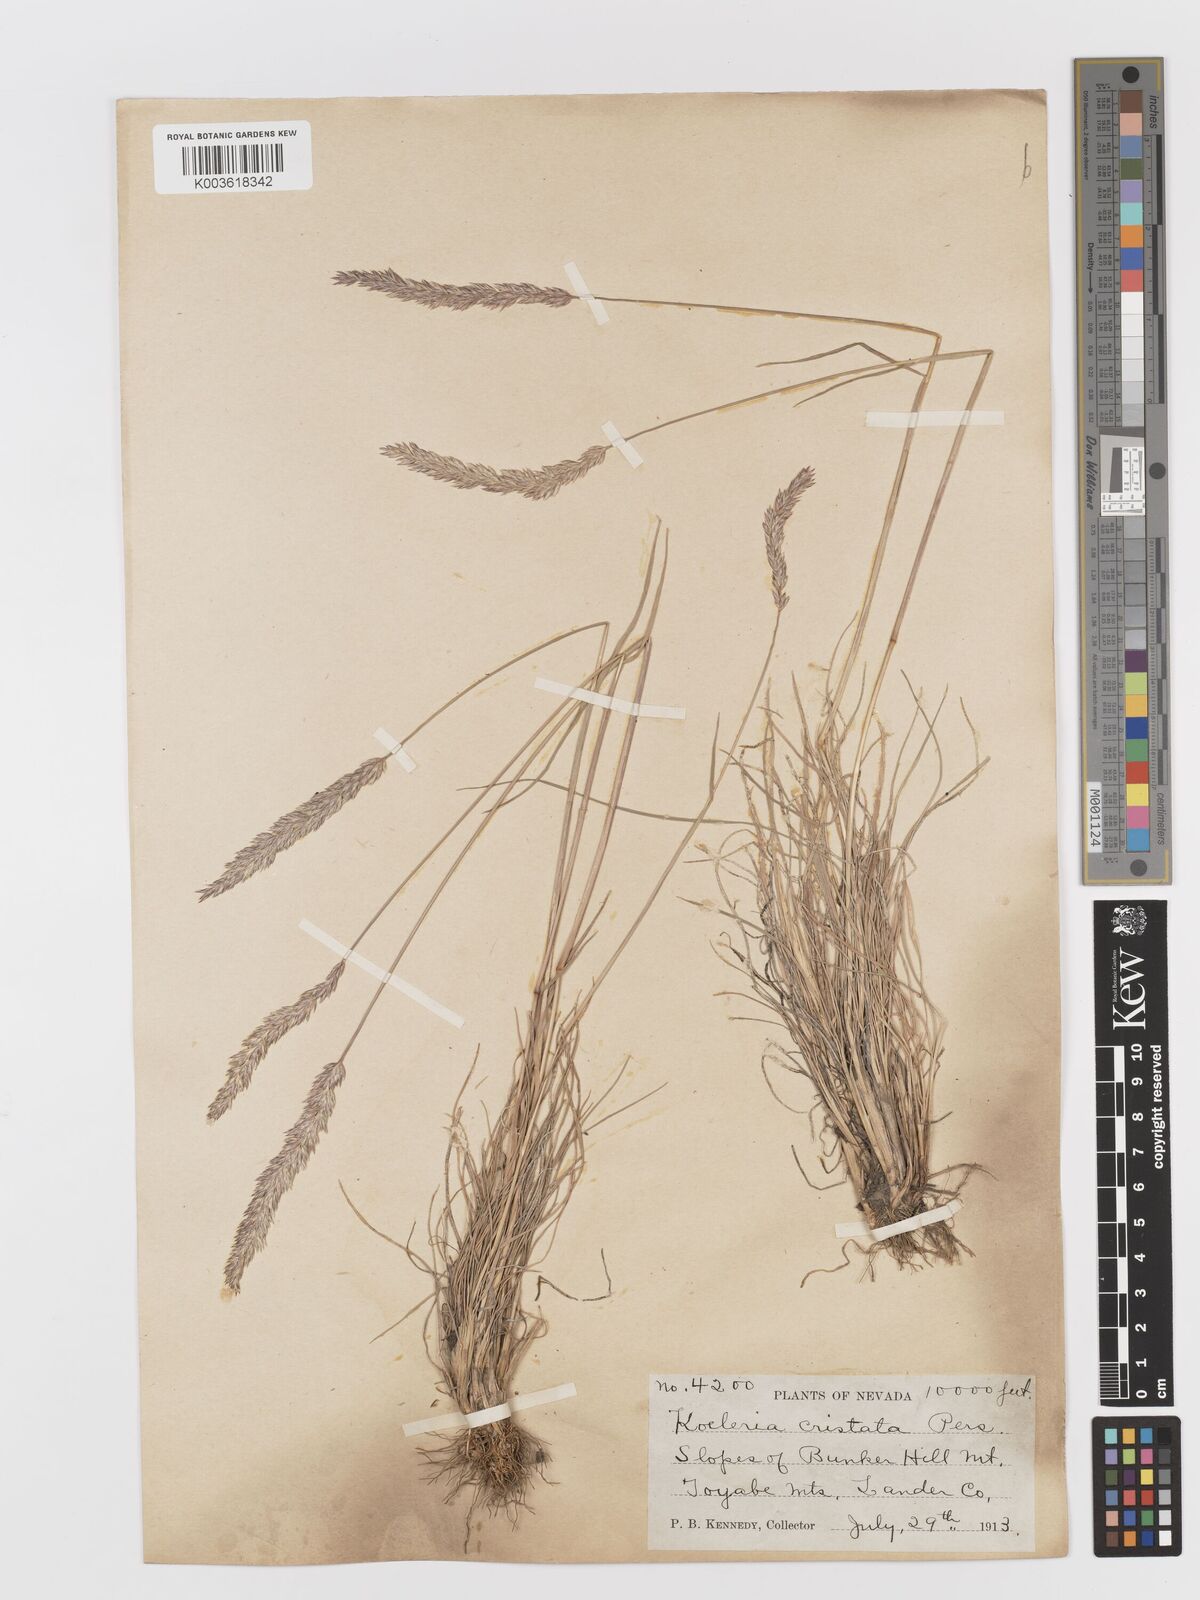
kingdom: Plantae
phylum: Tracheophyta
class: Liliopsida
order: Poales
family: Poaceae
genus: Koeleria
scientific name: Koeleria
